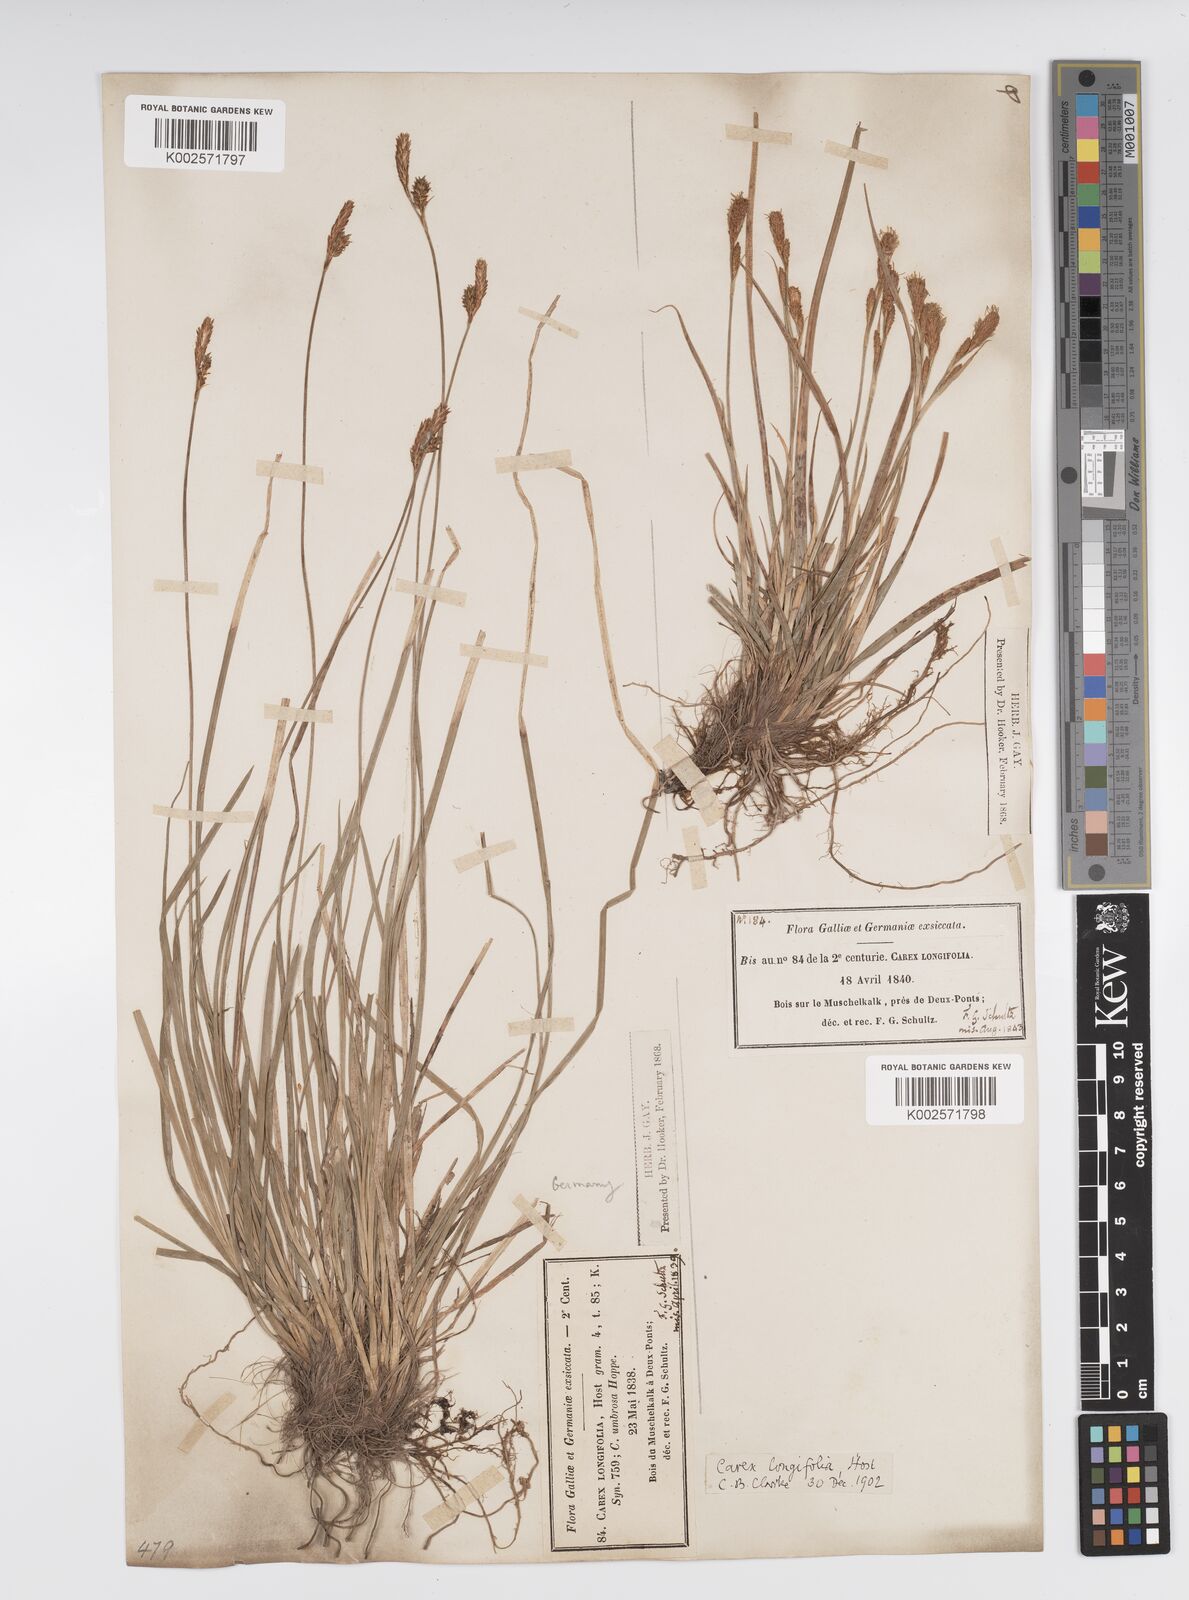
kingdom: Plantae
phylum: Tracheophyta
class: Liliopsida
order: Poales
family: Cyperaceae
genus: Carex
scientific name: Carex umbrosa
